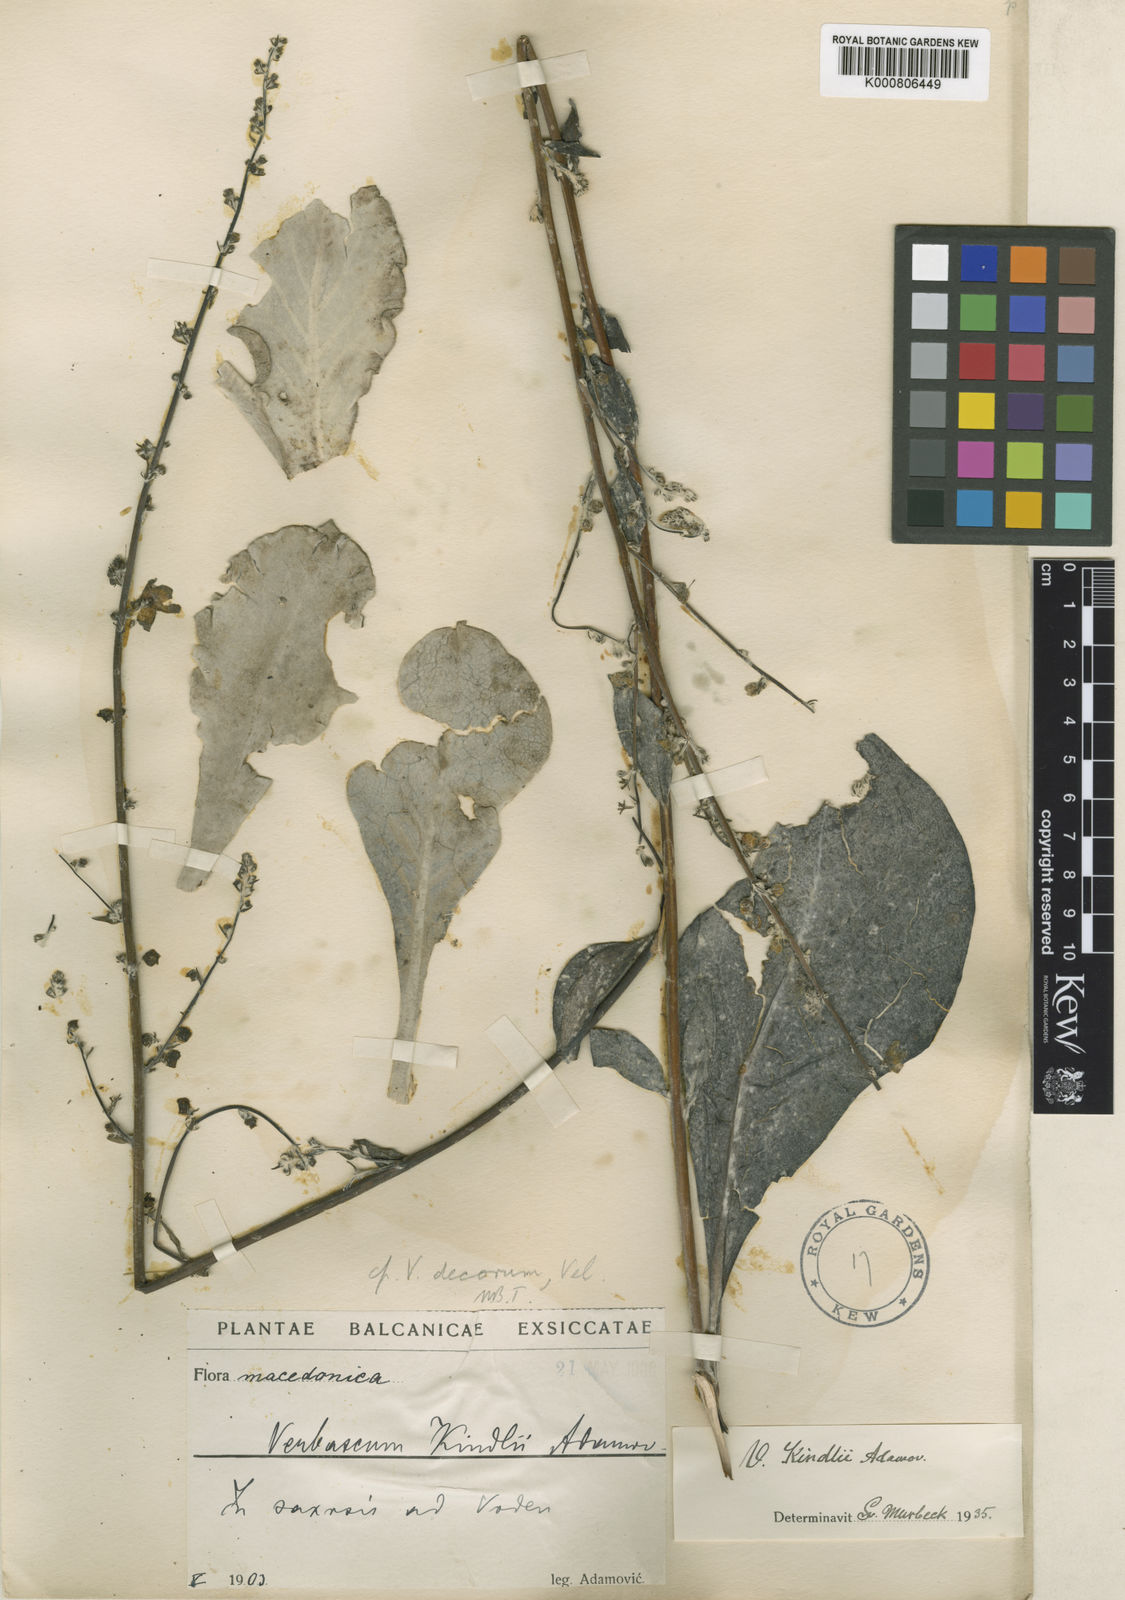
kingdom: Plantae
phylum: Tracheophyta
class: Magnoliopsida
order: Lamiales
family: Scrophulariaceae
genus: Verbascum
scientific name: Verbascum graecum
